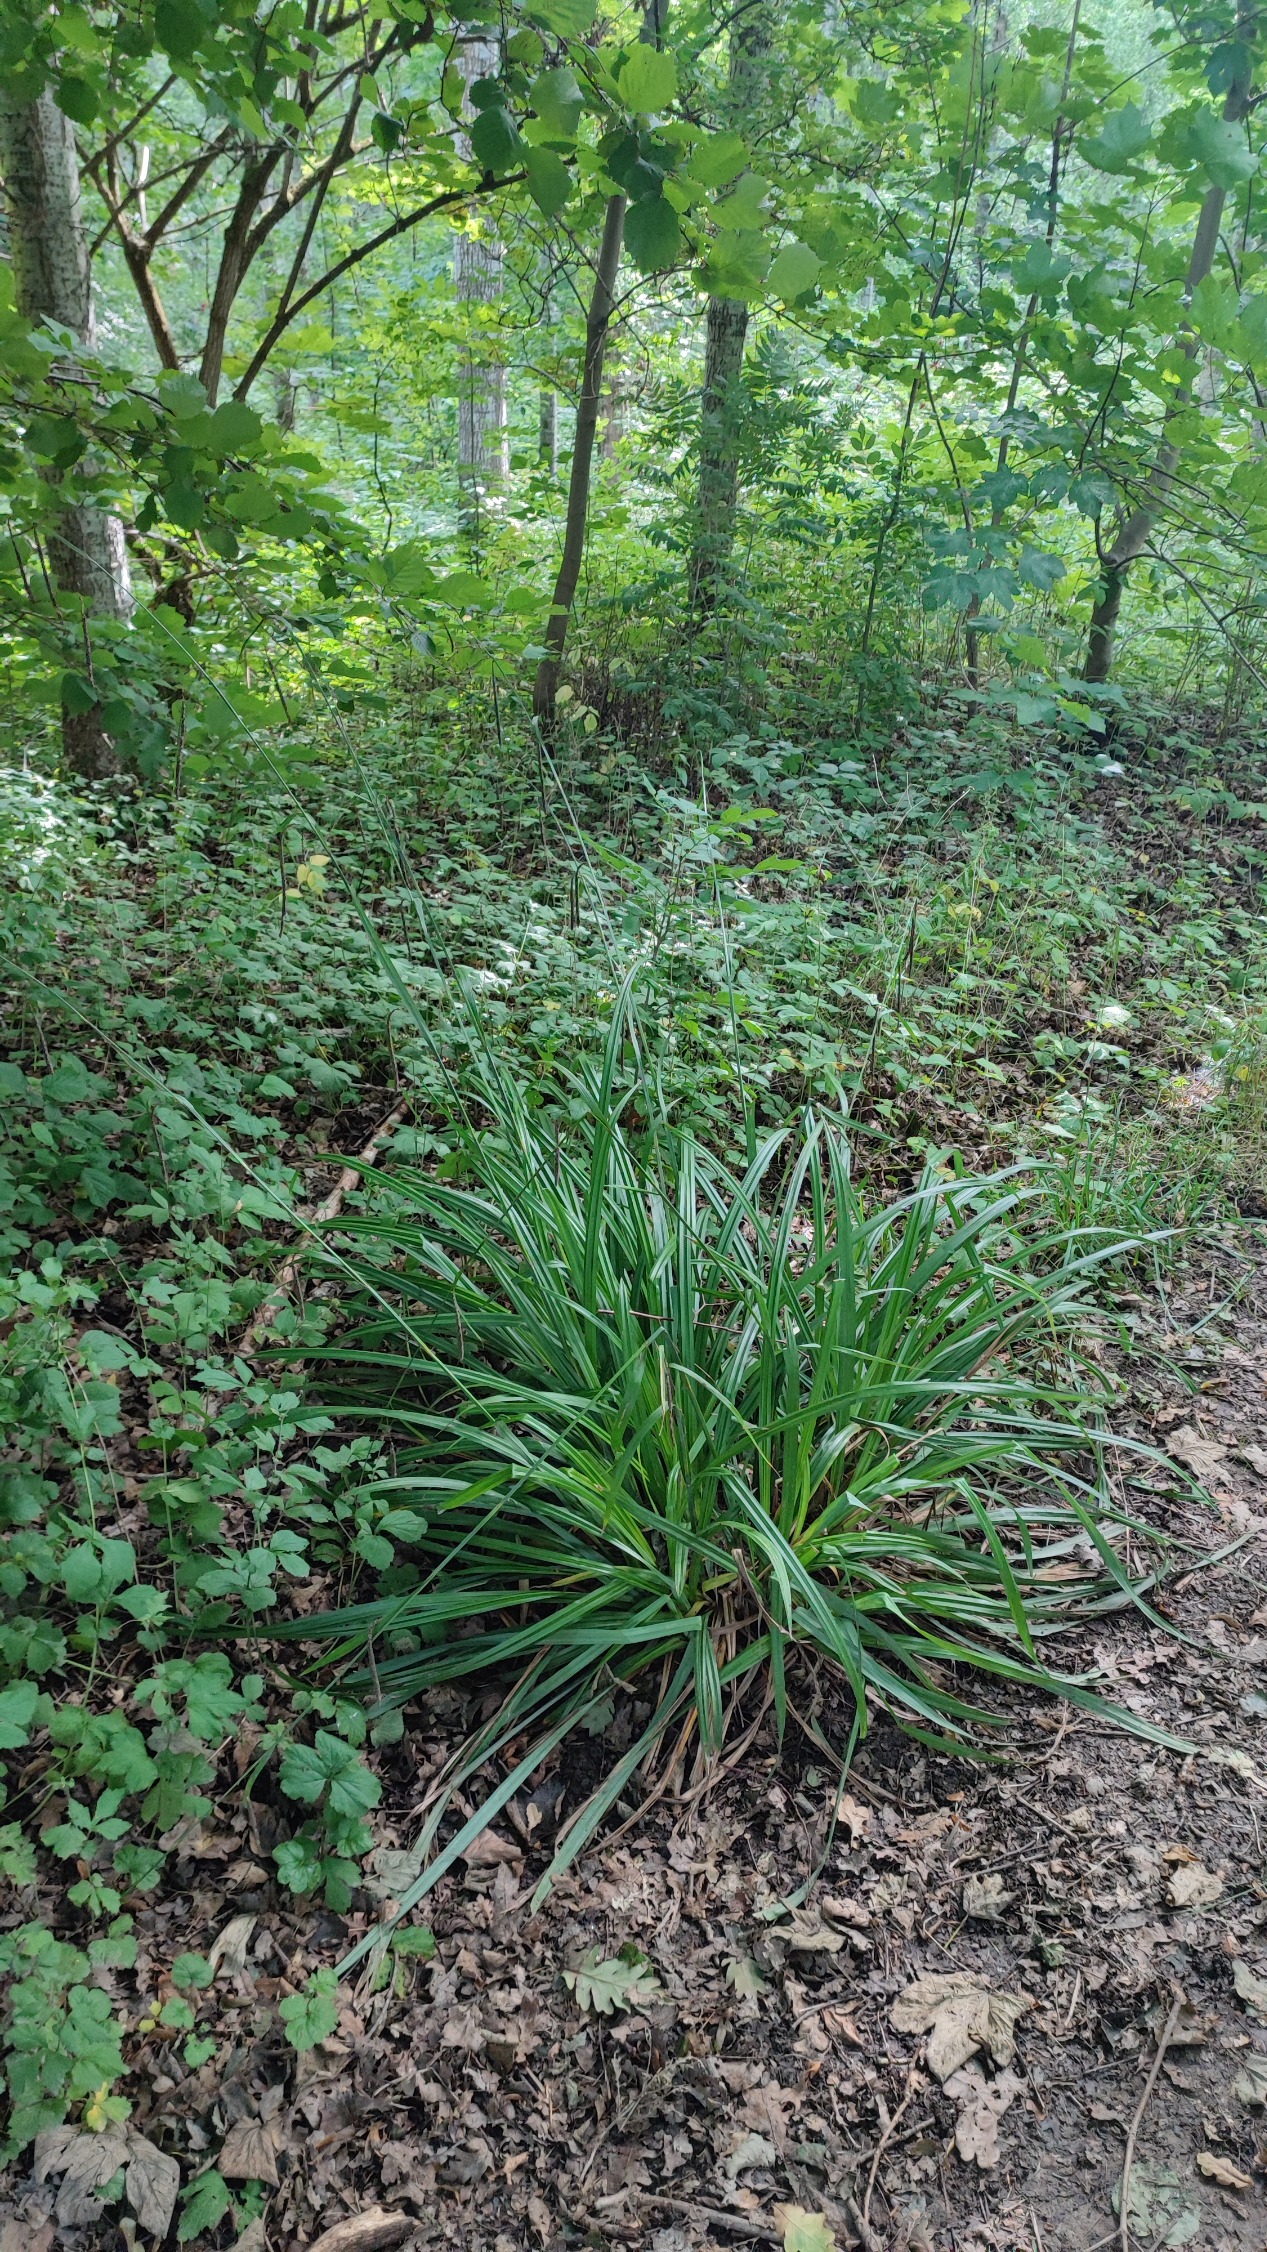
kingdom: Plantae
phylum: Tracheophyta
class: Liliopsida
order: Poales
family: Cyperaceae
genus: Carex
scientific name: Carex pendula
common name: Kæmpe-star
